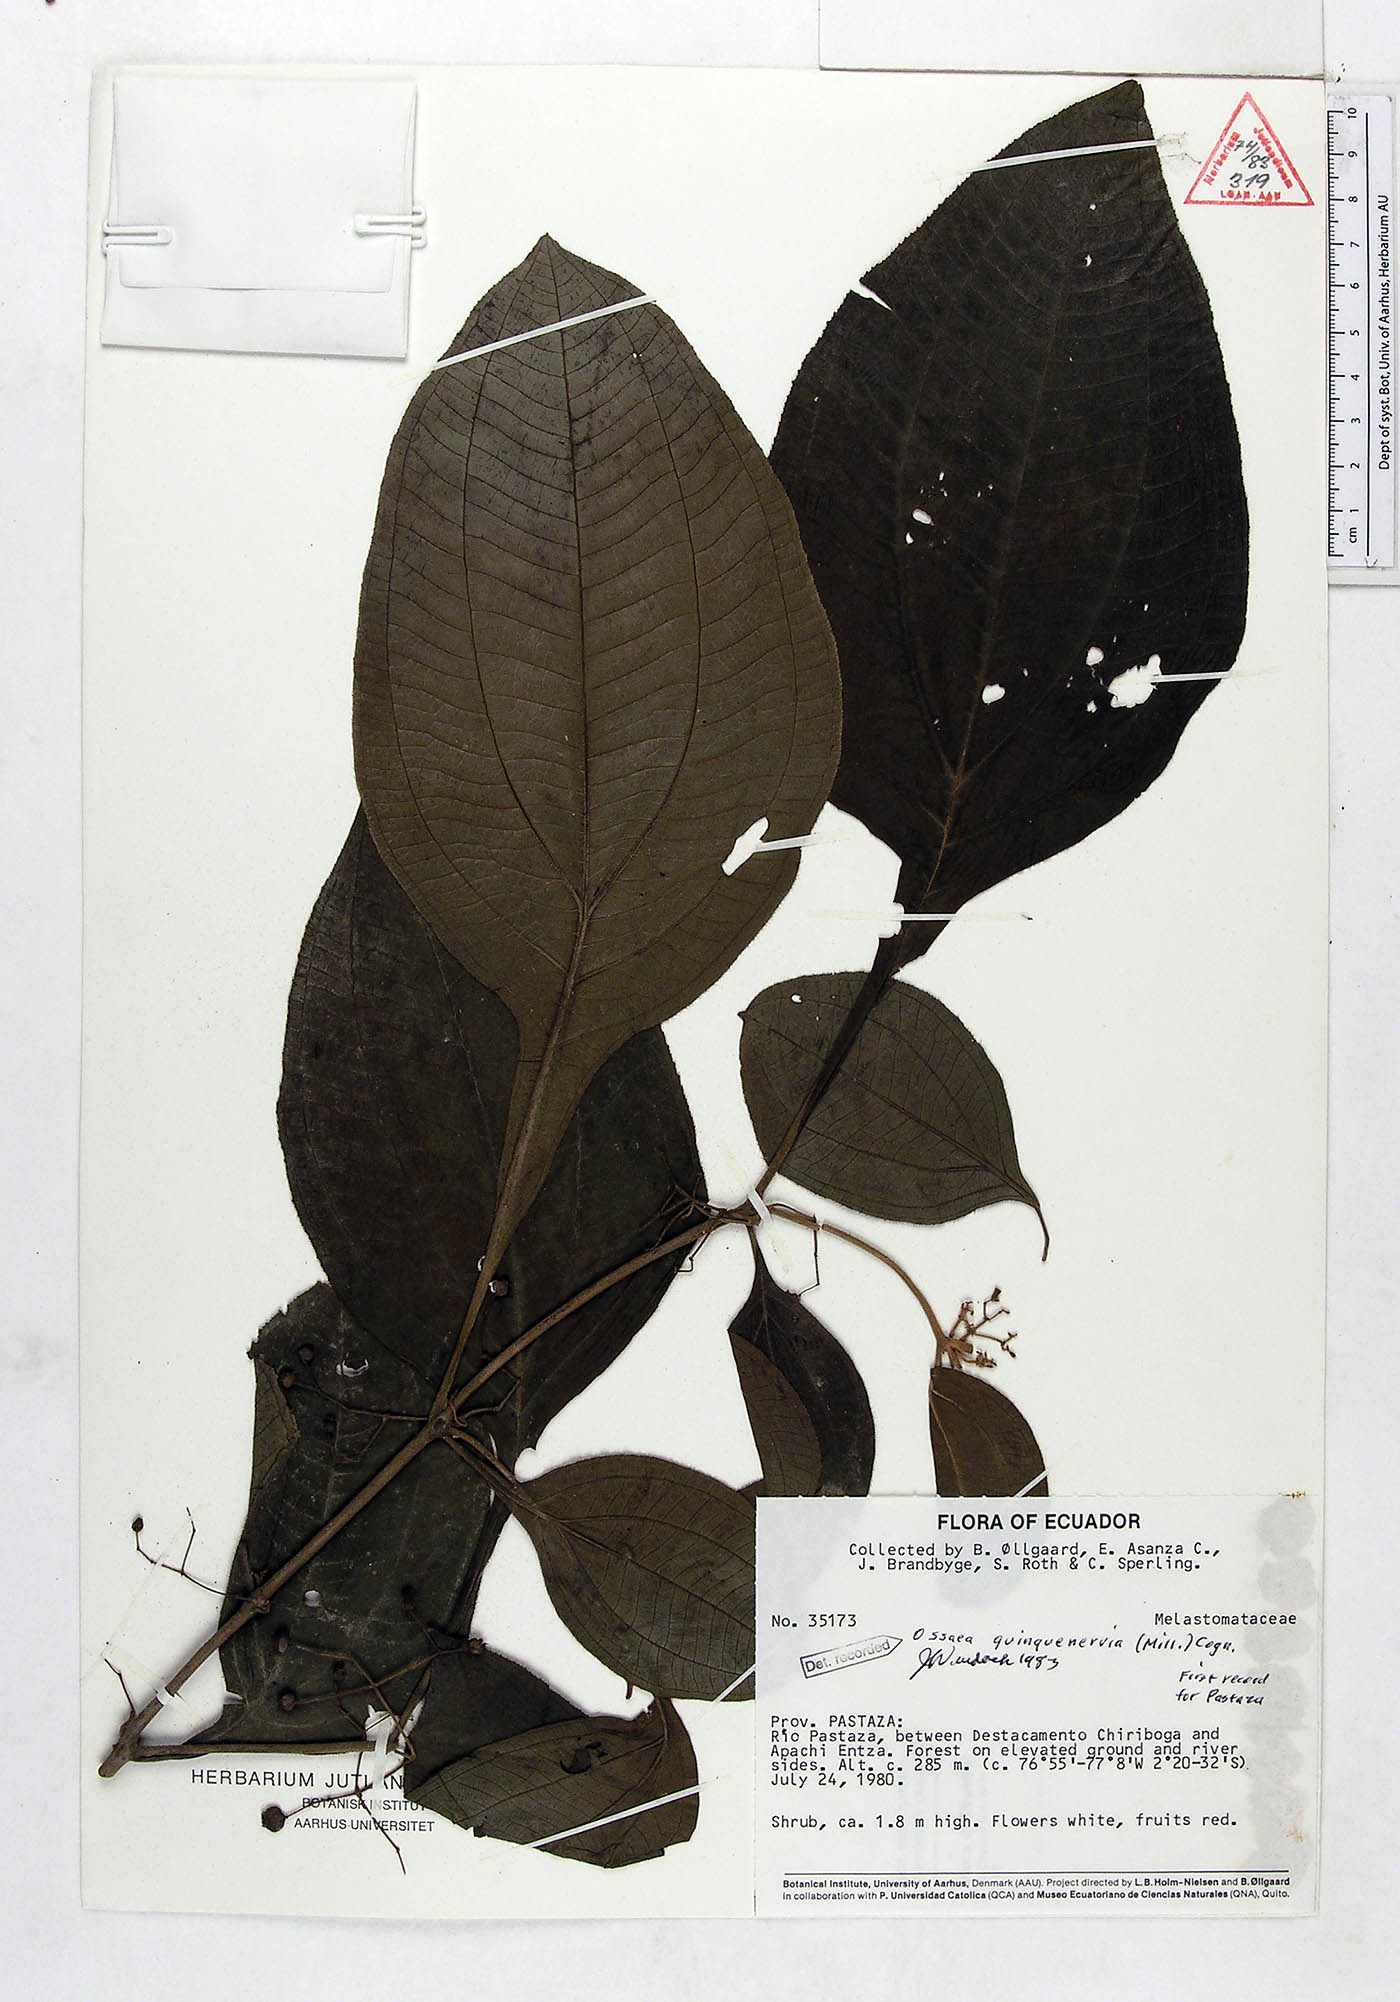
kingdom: Plantae
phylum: Tracheophyta
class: Magnoliopsida
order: Myrtales
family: Melastomataceae
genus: Miconia
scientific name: Miconia quinquenervia
